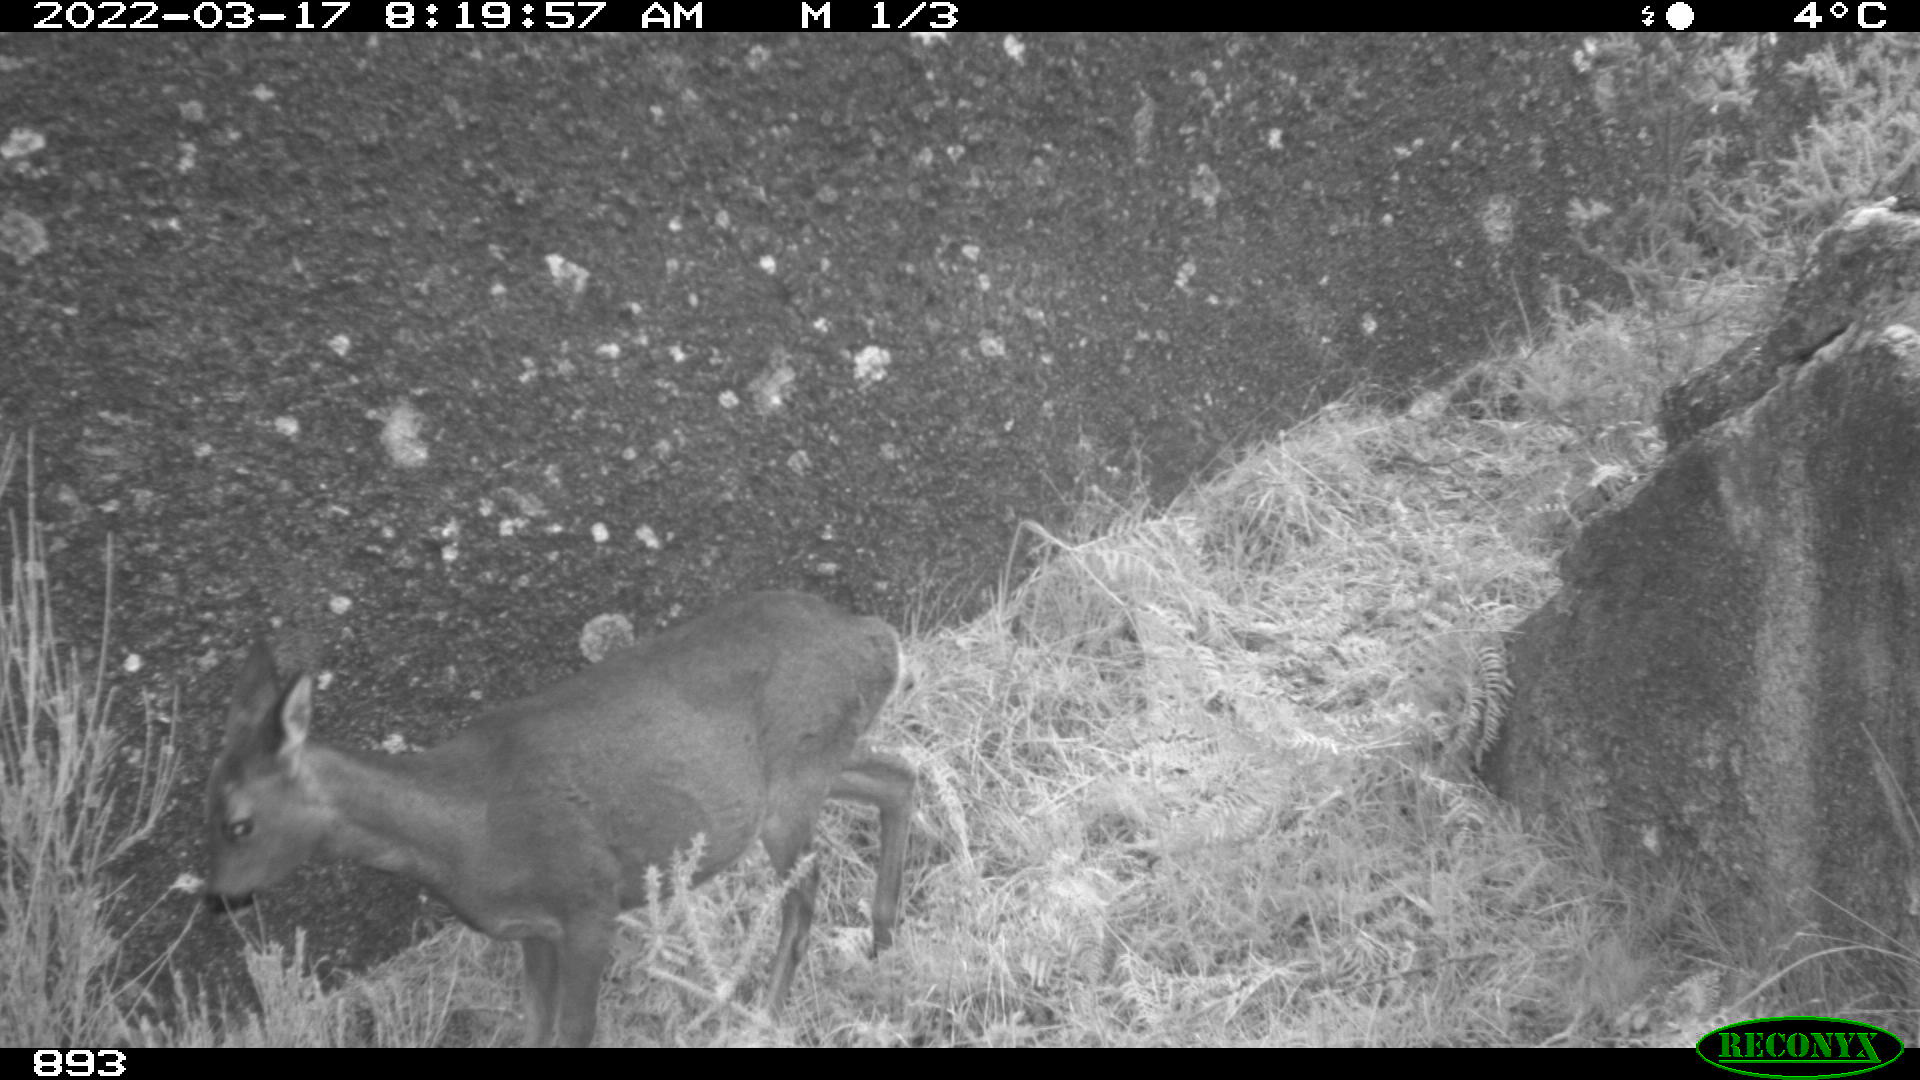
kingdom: Animalia
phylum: Chordata
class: Mammalia
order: Artiodactyla
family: Cervidae
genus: Capreolus
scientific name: Capreolus capreolus
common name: Western roe deer
